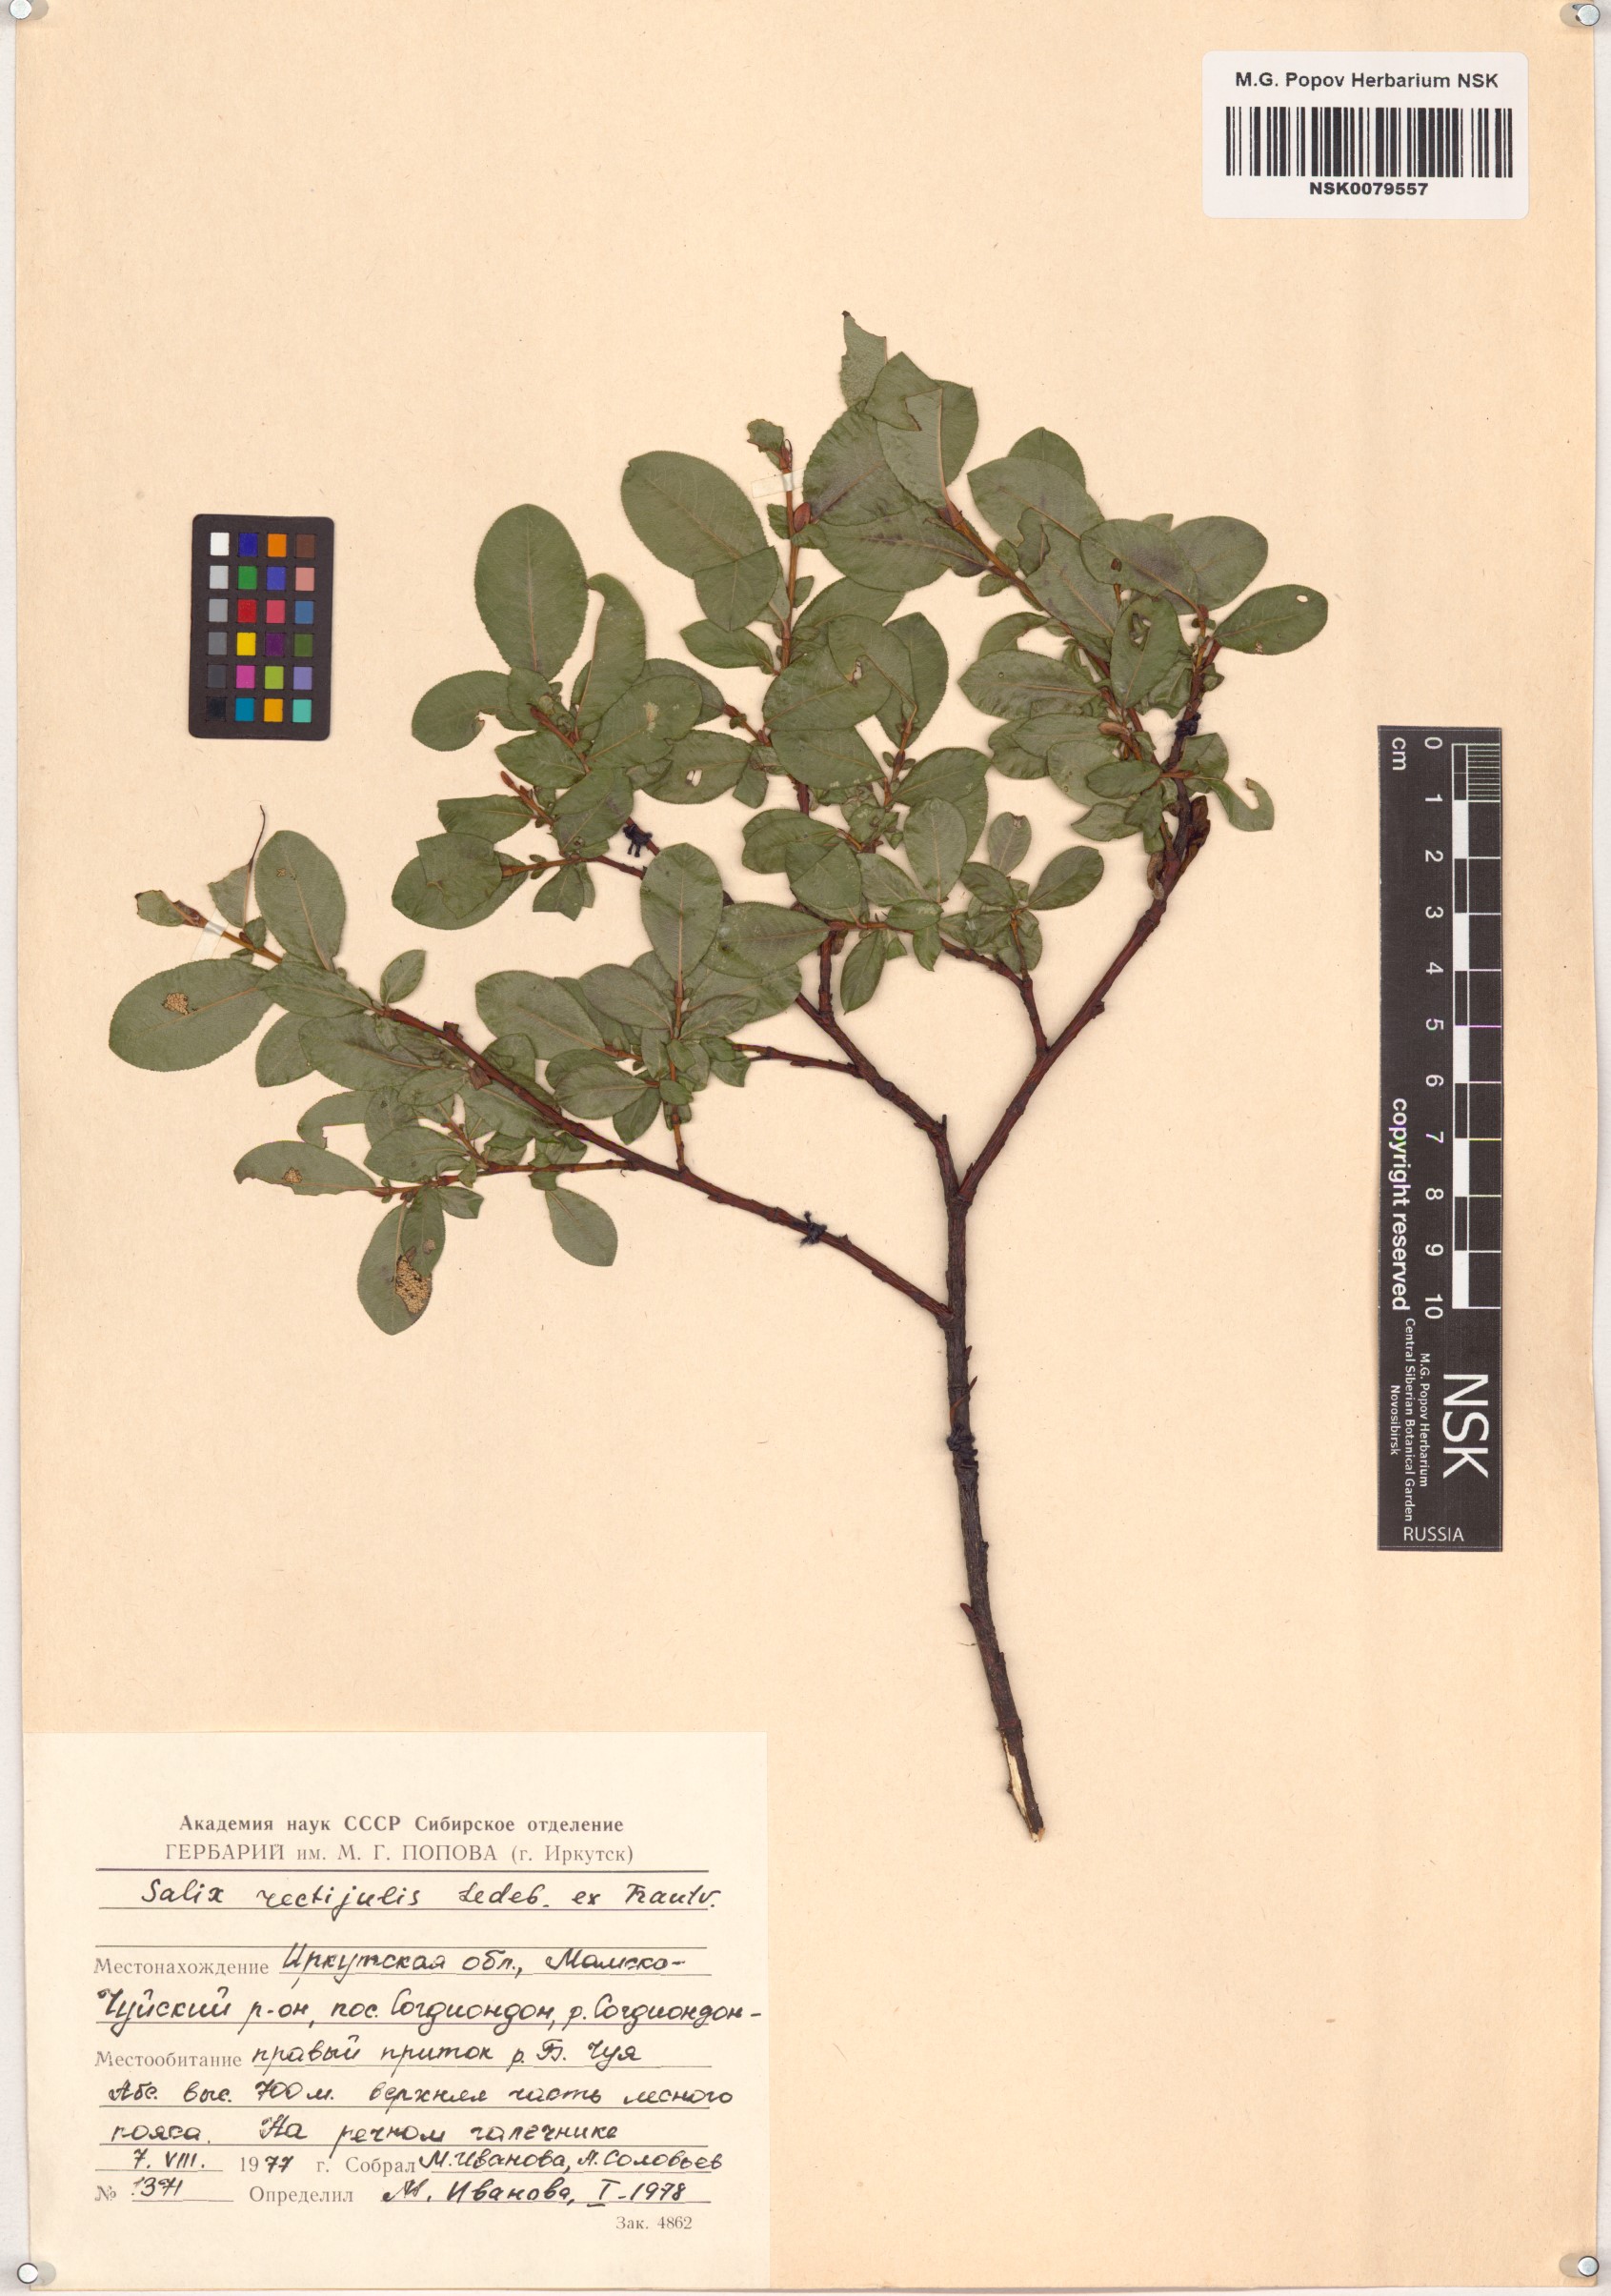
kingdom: Plantae
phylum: Tracheophyta
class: Magnoliopsida
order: Malpighiales
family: Salicaceae
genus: Salix
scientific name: Salix rectijulis
